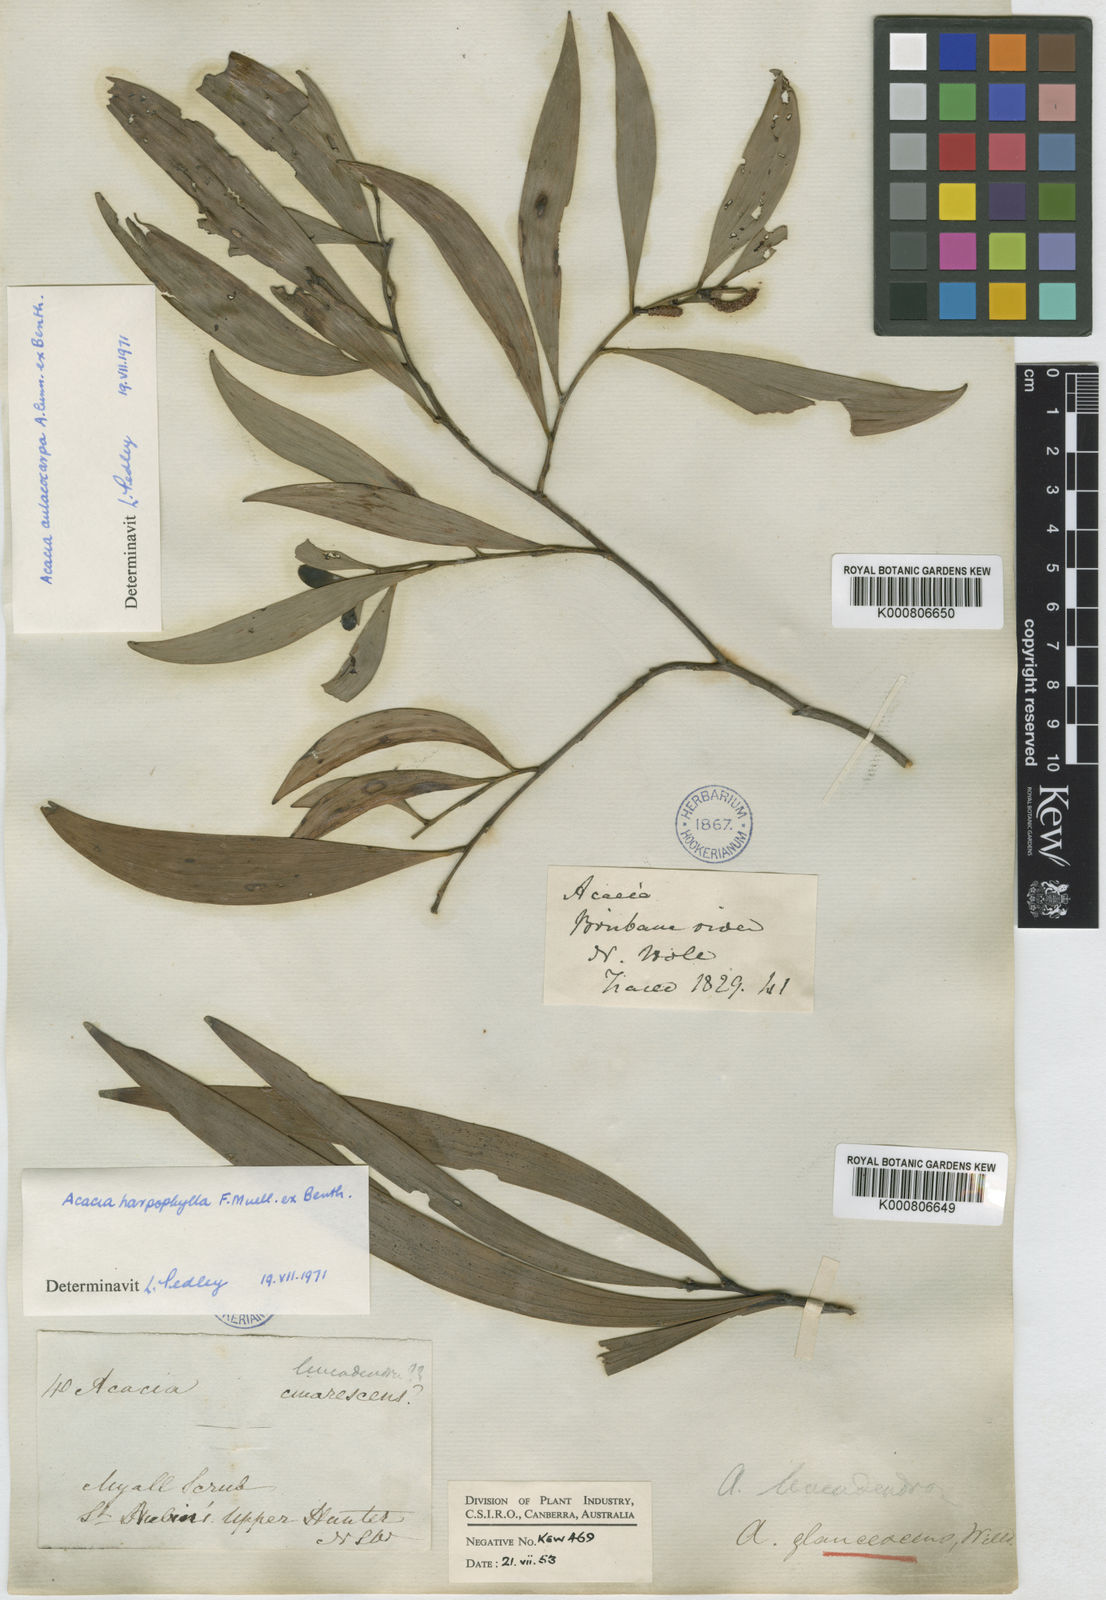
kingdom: Plantae
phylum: Tracheophyta
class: Magnoliopsida
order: Fabales
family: Fabaceae
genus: Acacia
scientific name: Acacia binervia
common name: Coast myall
